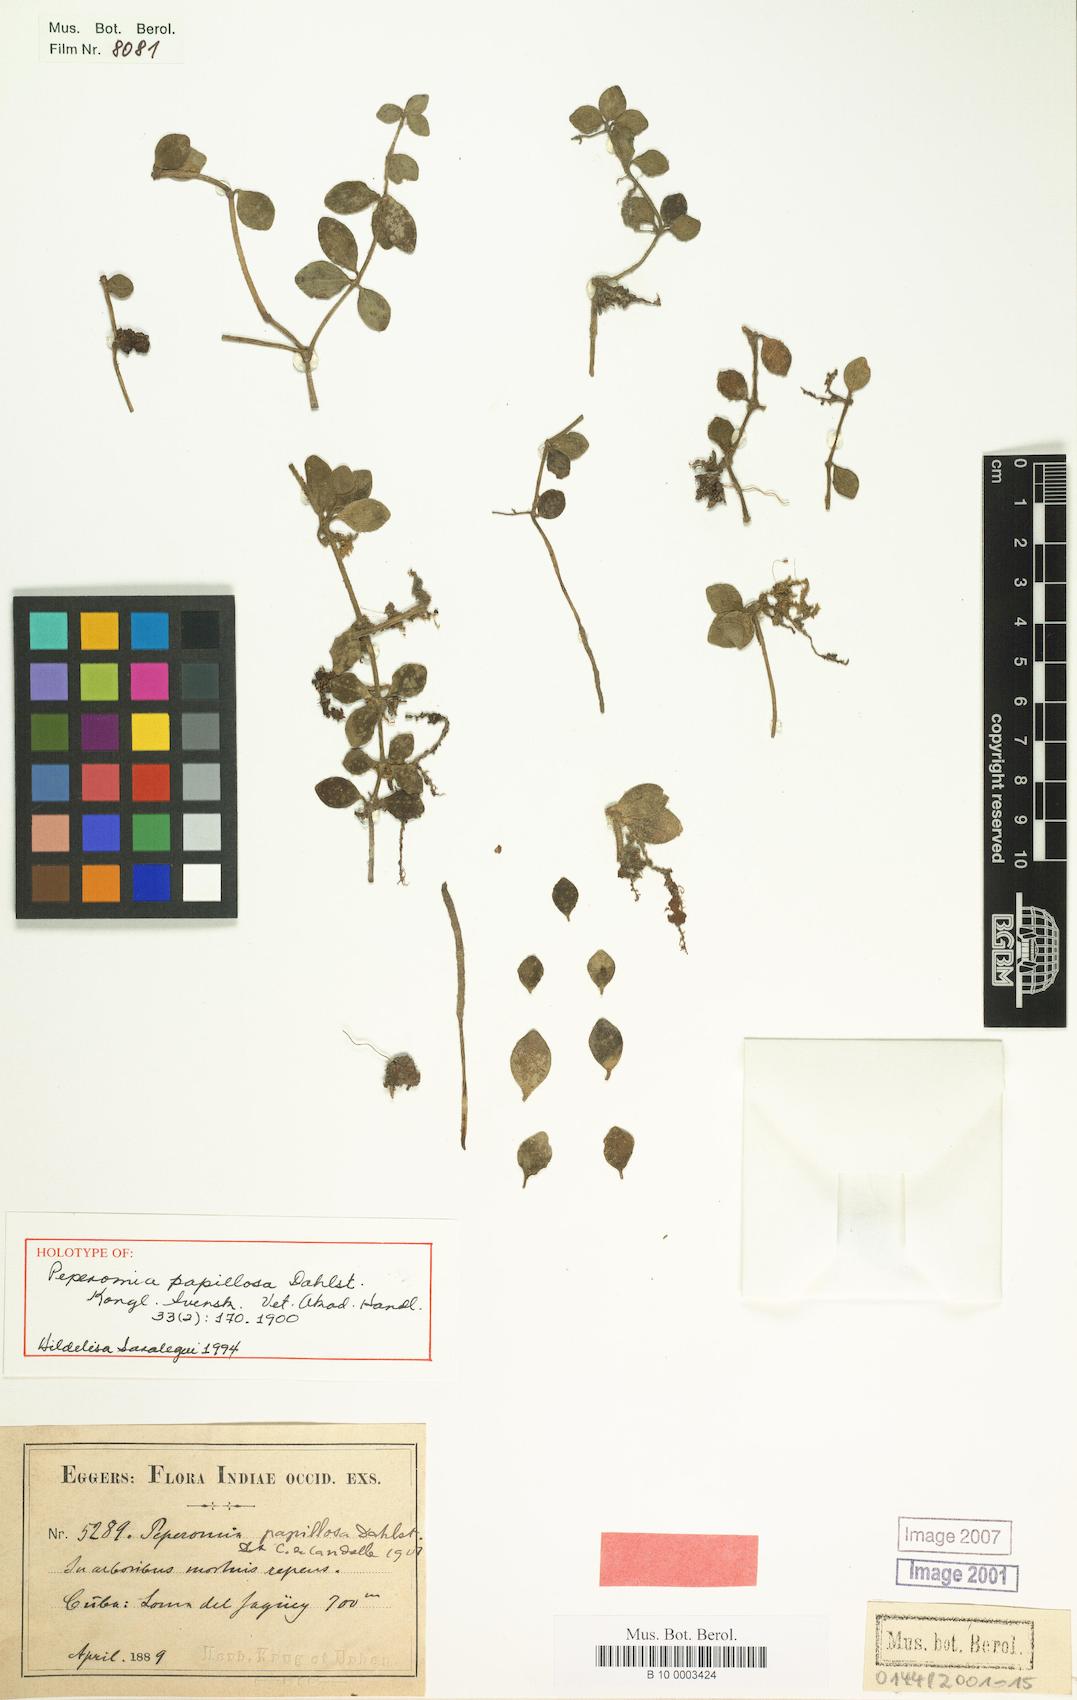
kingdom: Plantae
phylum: Tracheophyta
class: Magnoliopsida
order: Piperales
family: Piperaceae
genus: Peperomia
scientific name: Peperomia papillosa
